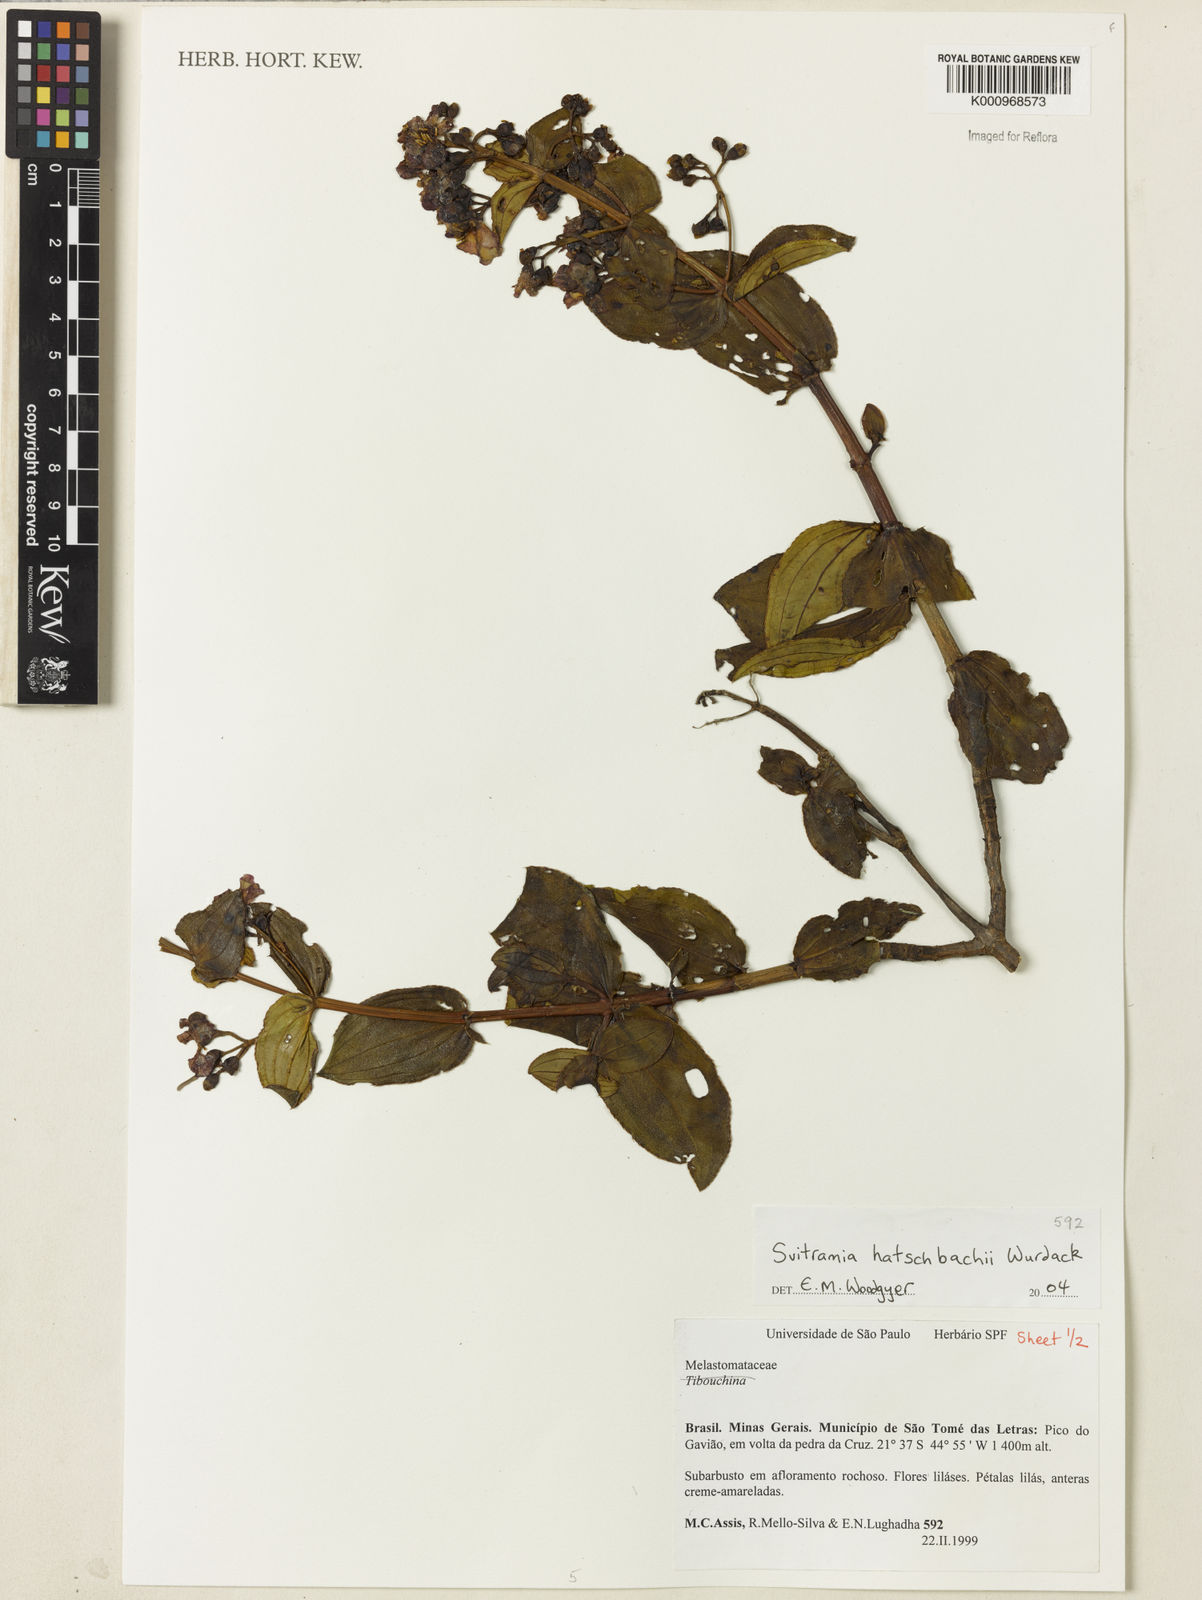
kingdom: Plantae
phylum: Tracheophyta
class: Magnoliopsida
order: Myrtales
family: Melastomataceae
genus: Pleroma
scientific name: Pleroma gertii
